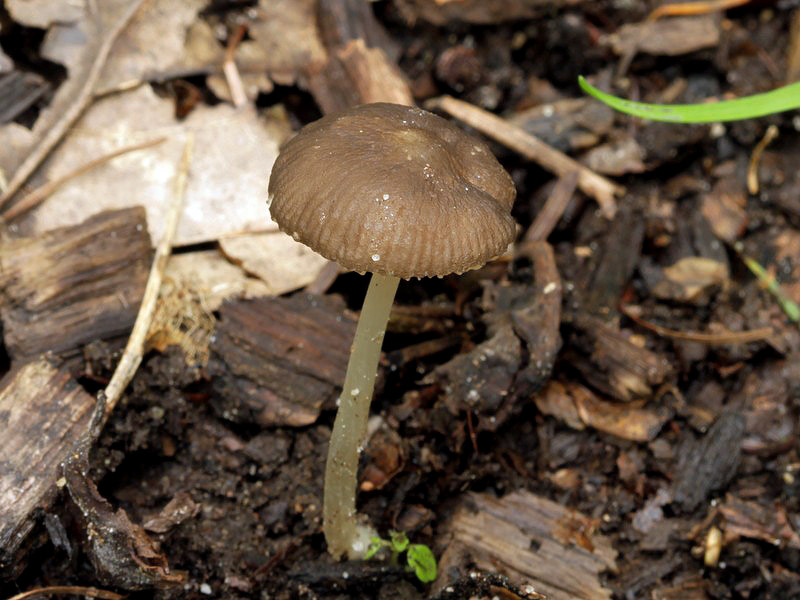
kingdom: Fungi
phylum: Basidiomycota
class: Agaricomycetes
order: Agaricales
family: Pluteaceae
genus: Pluteus
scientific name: Pluteus
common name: pudret skærmhat
